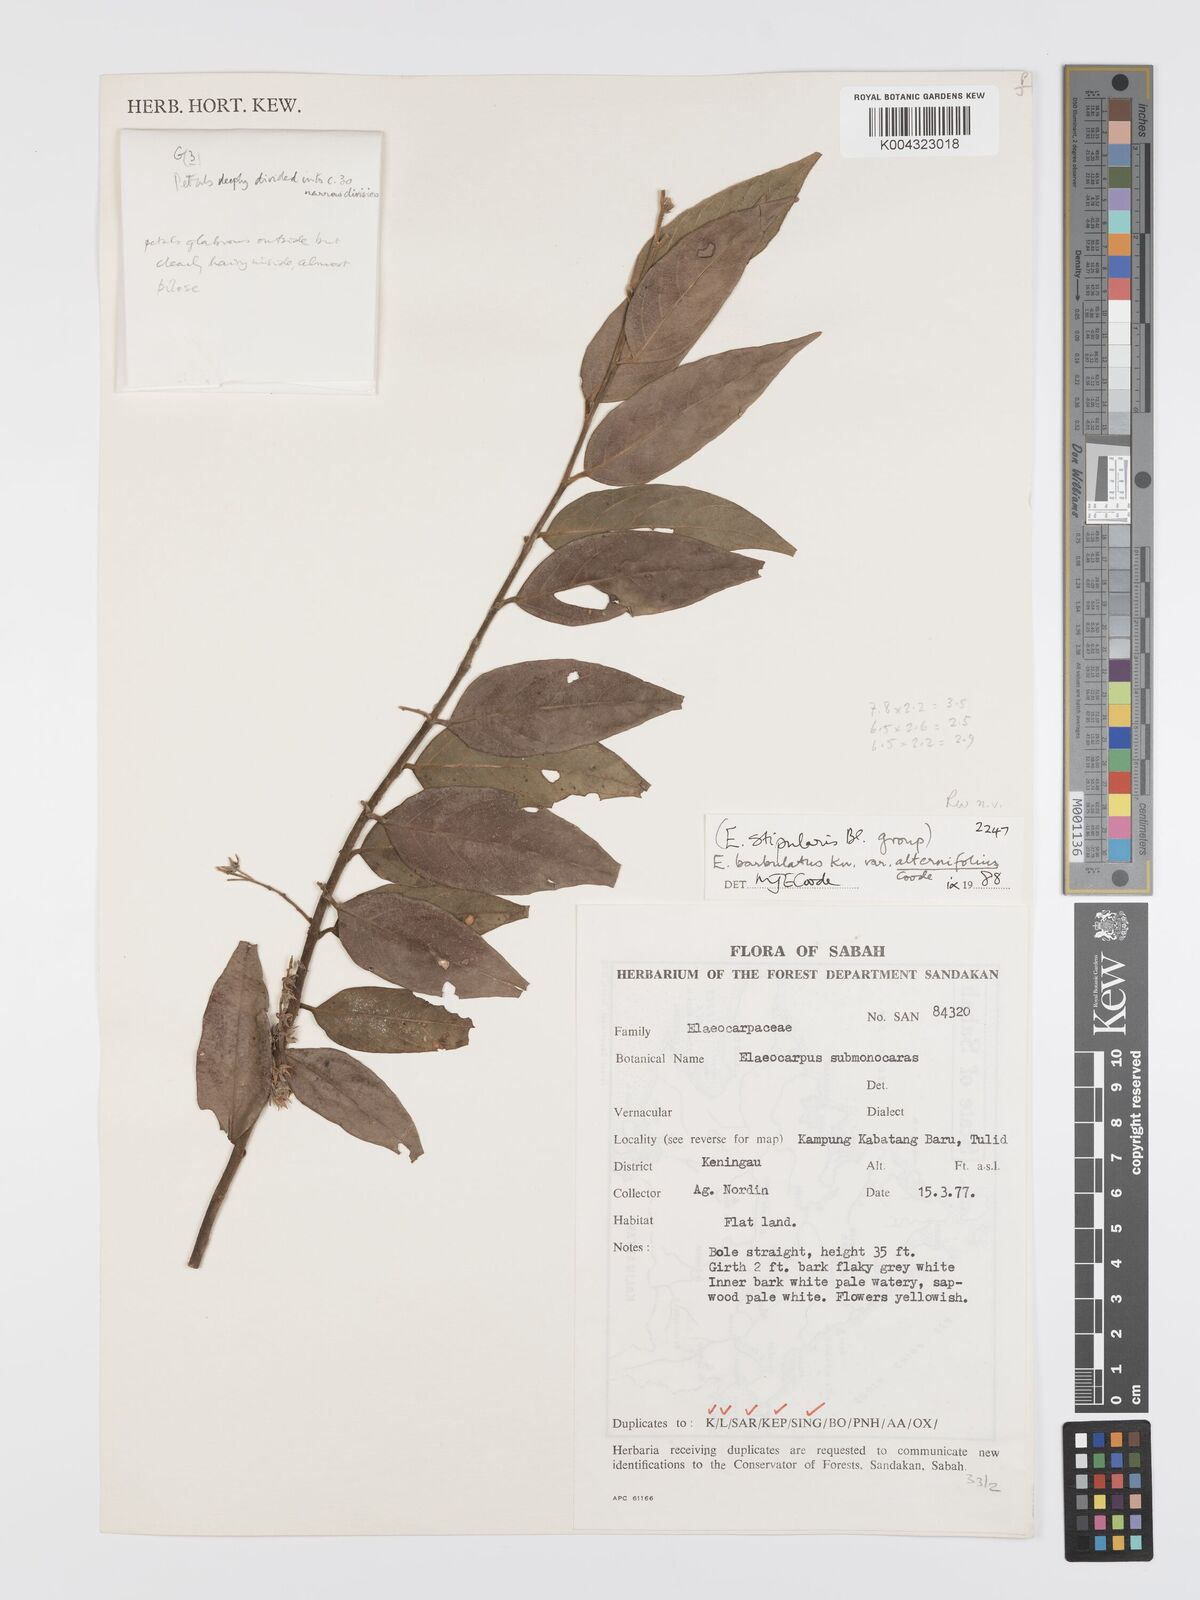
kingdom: Plantae
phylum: Tracheophyta
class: Magnoliopsida
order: Oxalidales
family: Elaeocarpaceae
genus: Elaeocarpus
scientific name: Elaeocarpus barbulatus
